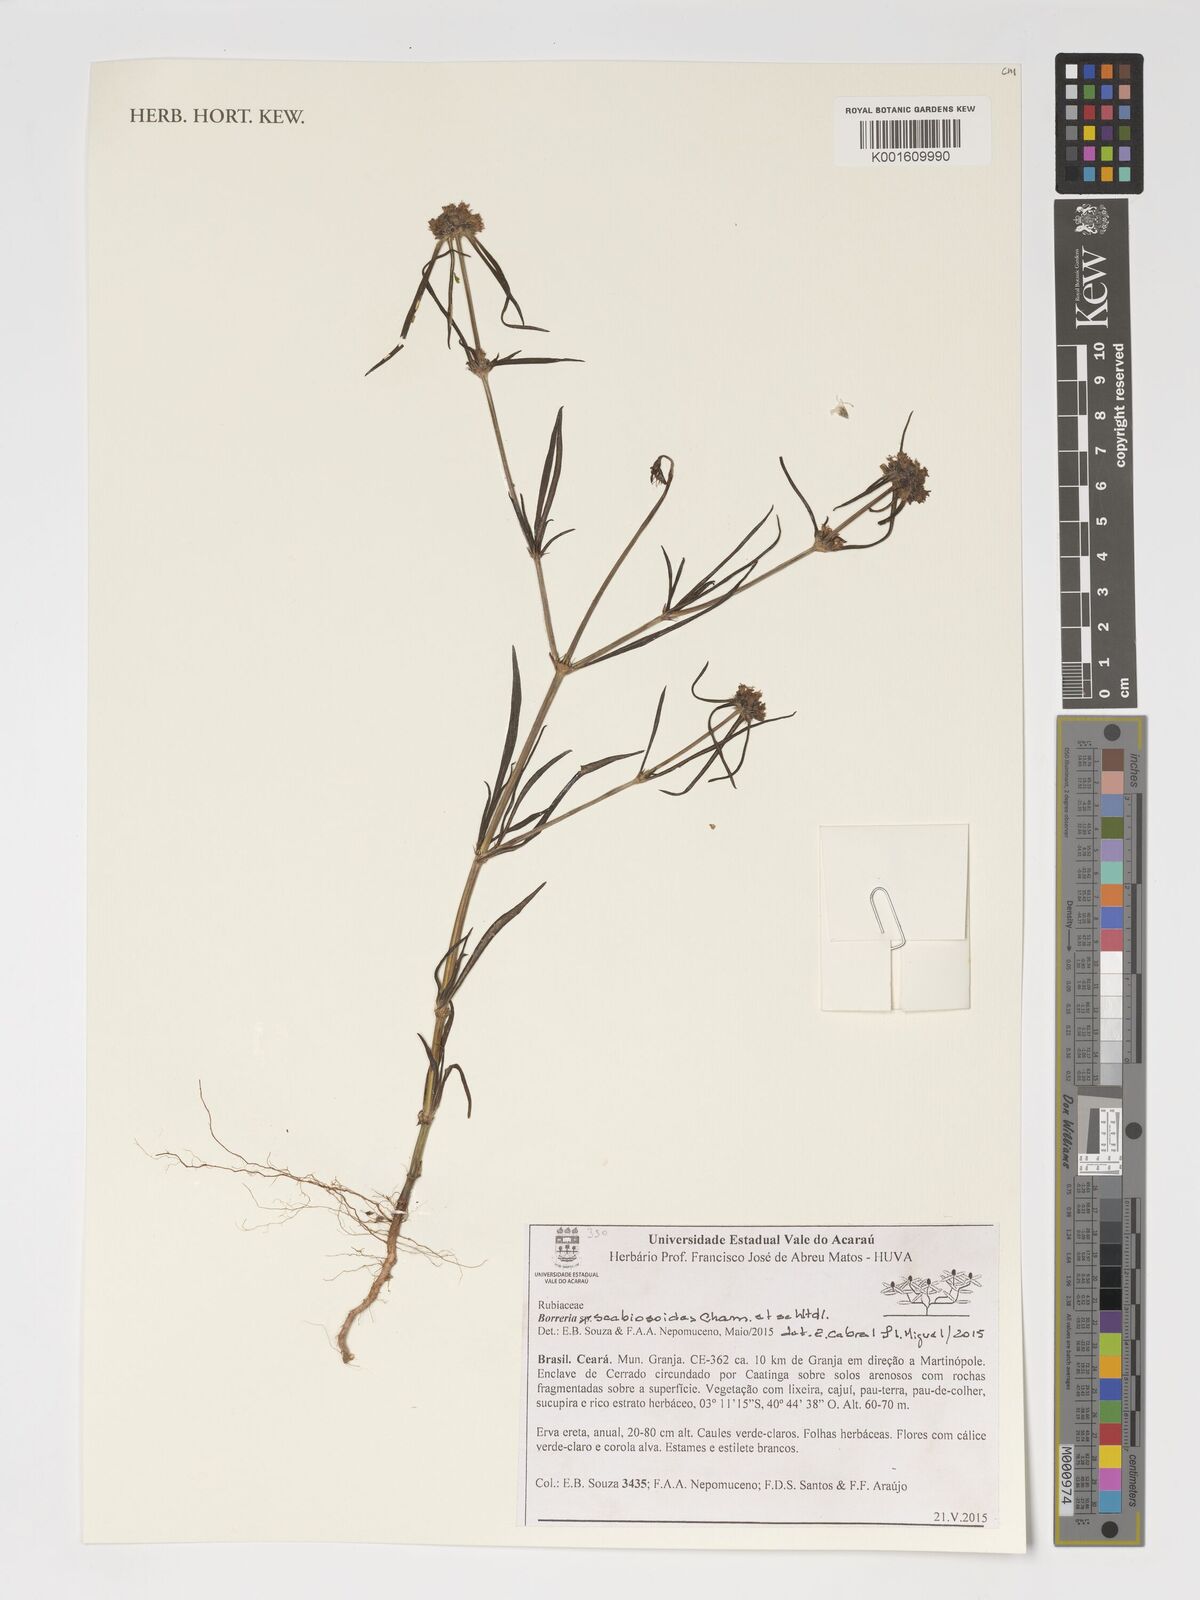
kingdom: Plantae
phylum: Tracheophyta
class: Magnoliopsida
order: Gentianales
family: Rubiaceae
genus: Spermacoce
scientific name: Spermacoce scabiosoides
